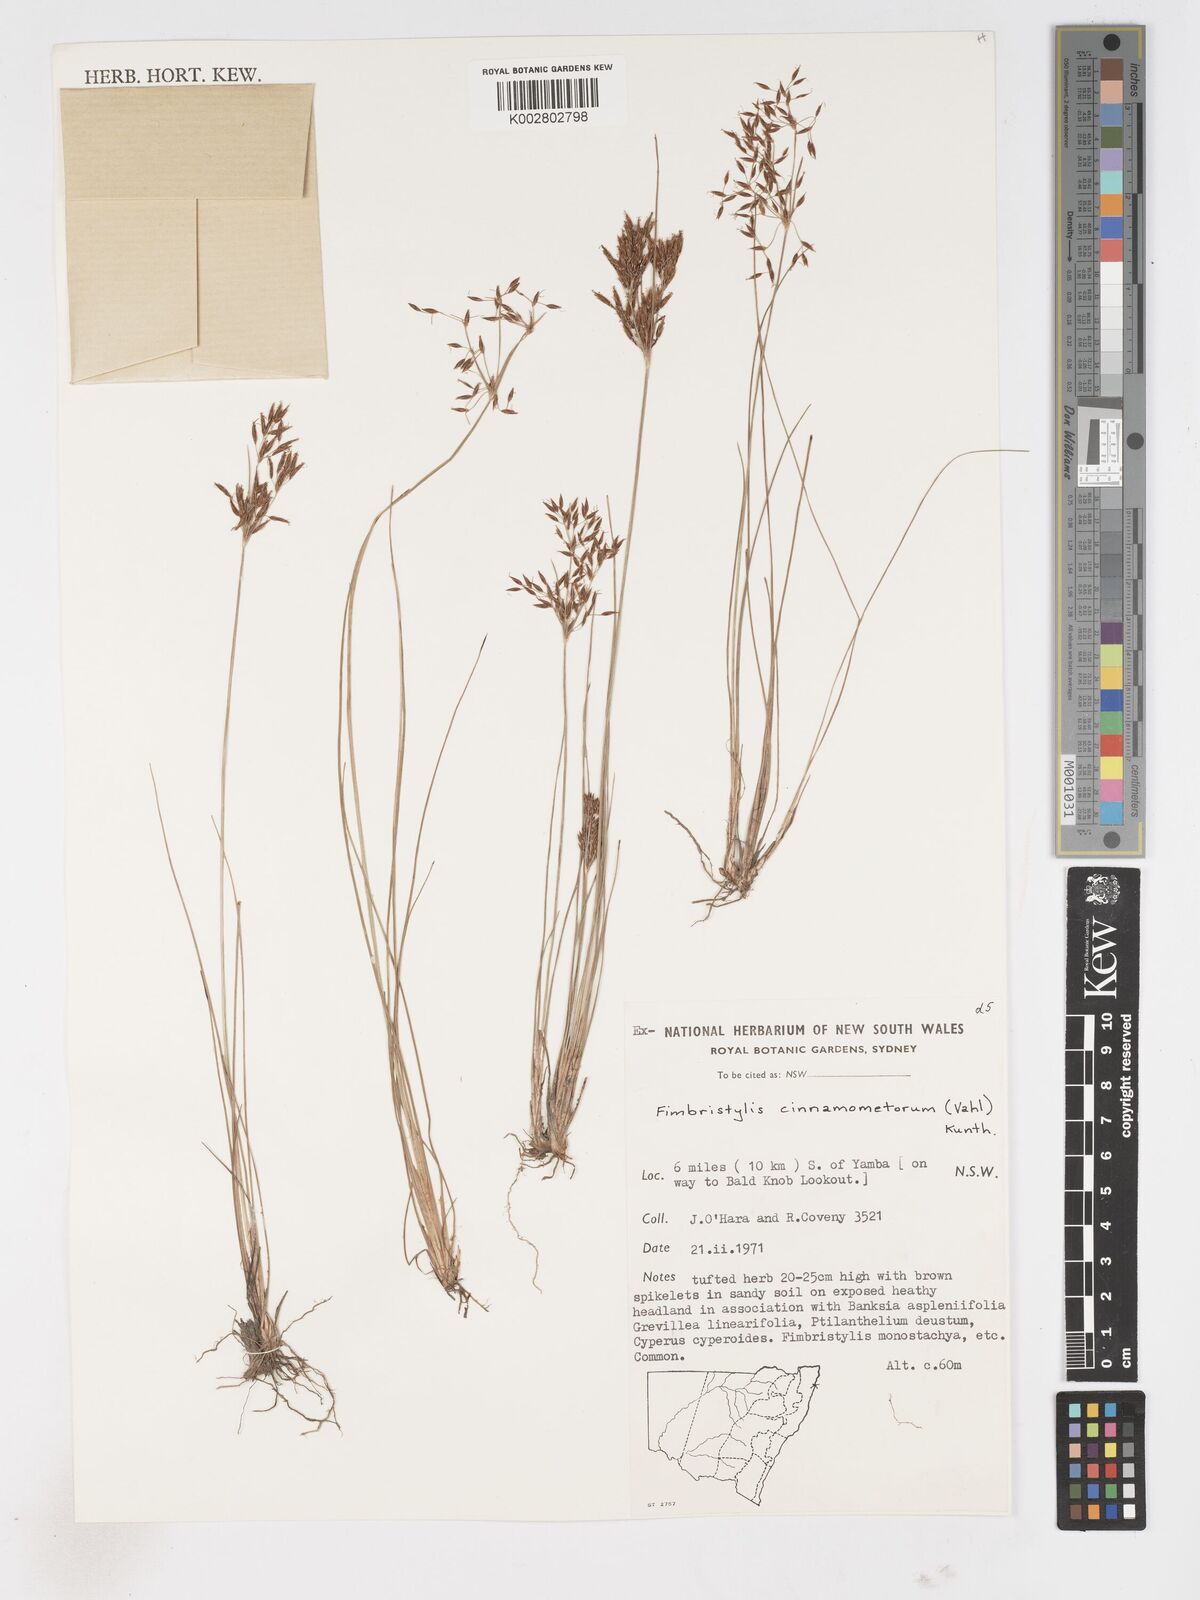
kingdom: Plantae
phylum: Tracheophyta
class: Liliopsida
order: Poales
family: Cyperaceae
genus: Fimbristylis
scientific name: Fimbristylis cinnamometorum
